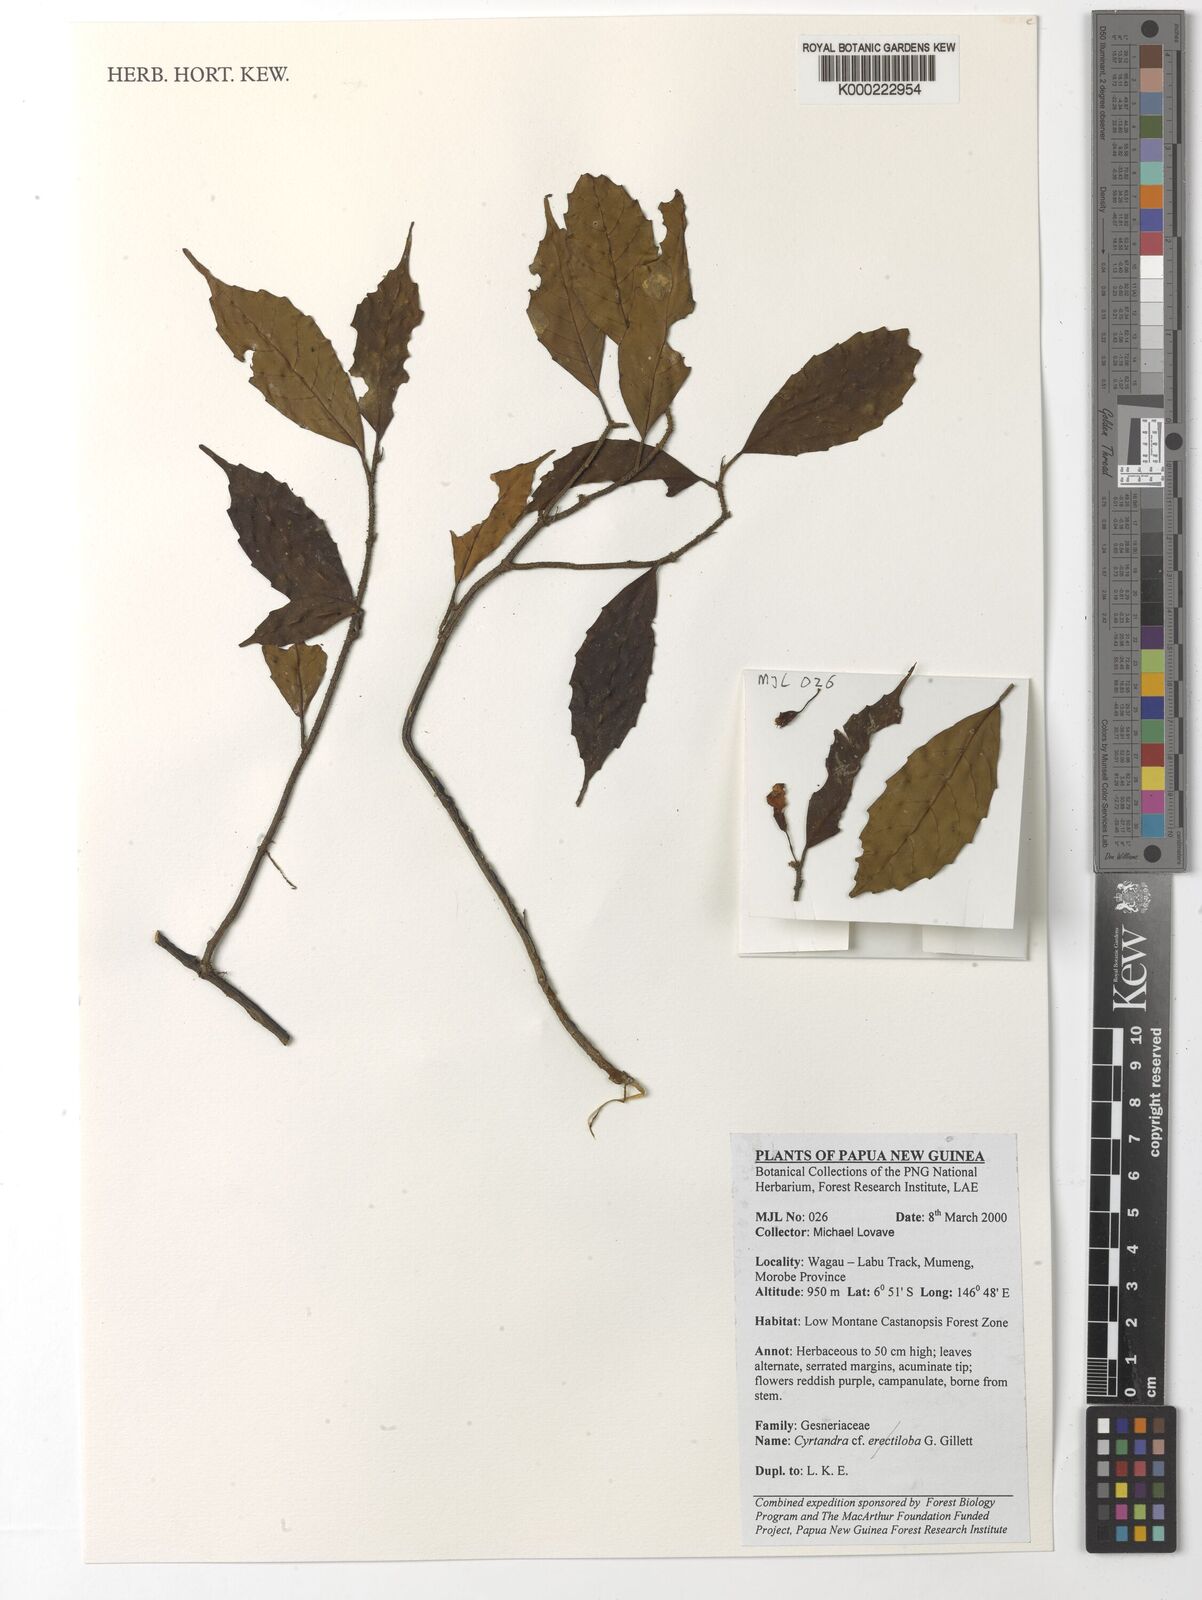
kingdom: Plantae
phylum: Tracheophyta
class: Magnoliopsida
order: Lamiales
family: Gesneriaceae
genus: Cyrtandra
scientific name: Cyrtandra erectiloba
